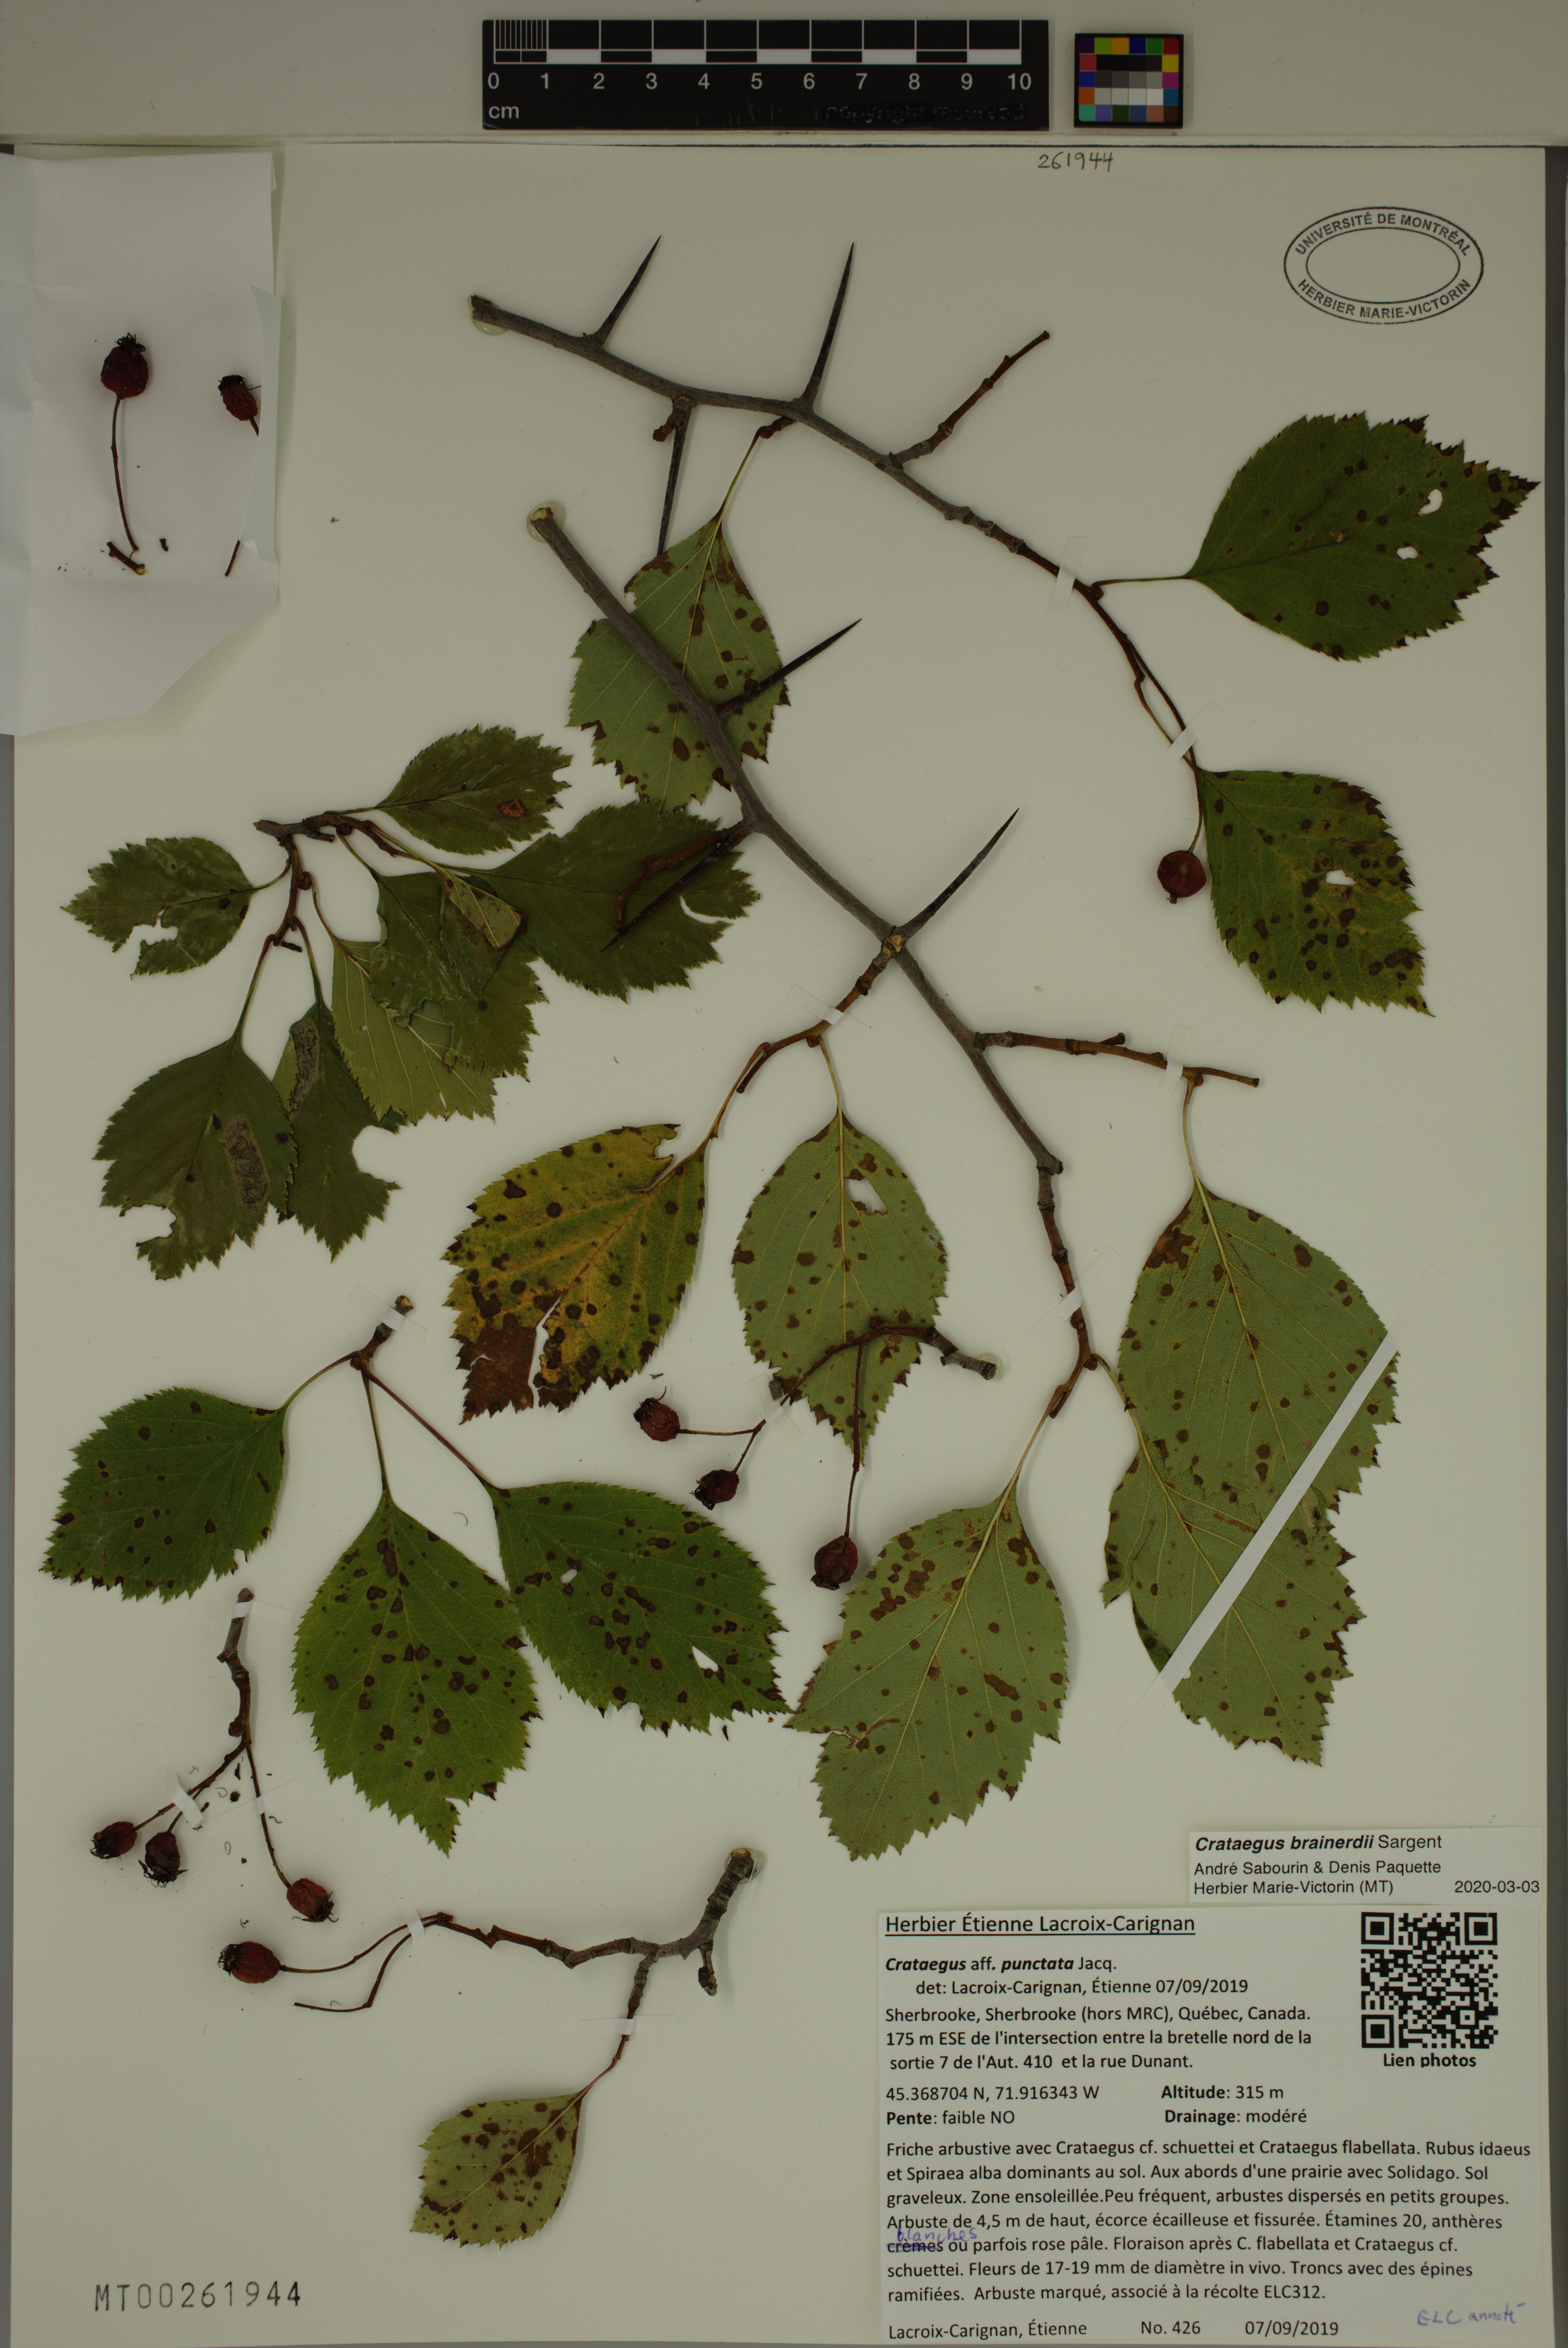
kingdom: Plantae
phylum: Tracheophyta
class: Magnoliopsida
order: Rosales
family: Rosaceae
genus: Crataegus
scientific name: Crataegus scabrida
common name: Rough hawthorn
